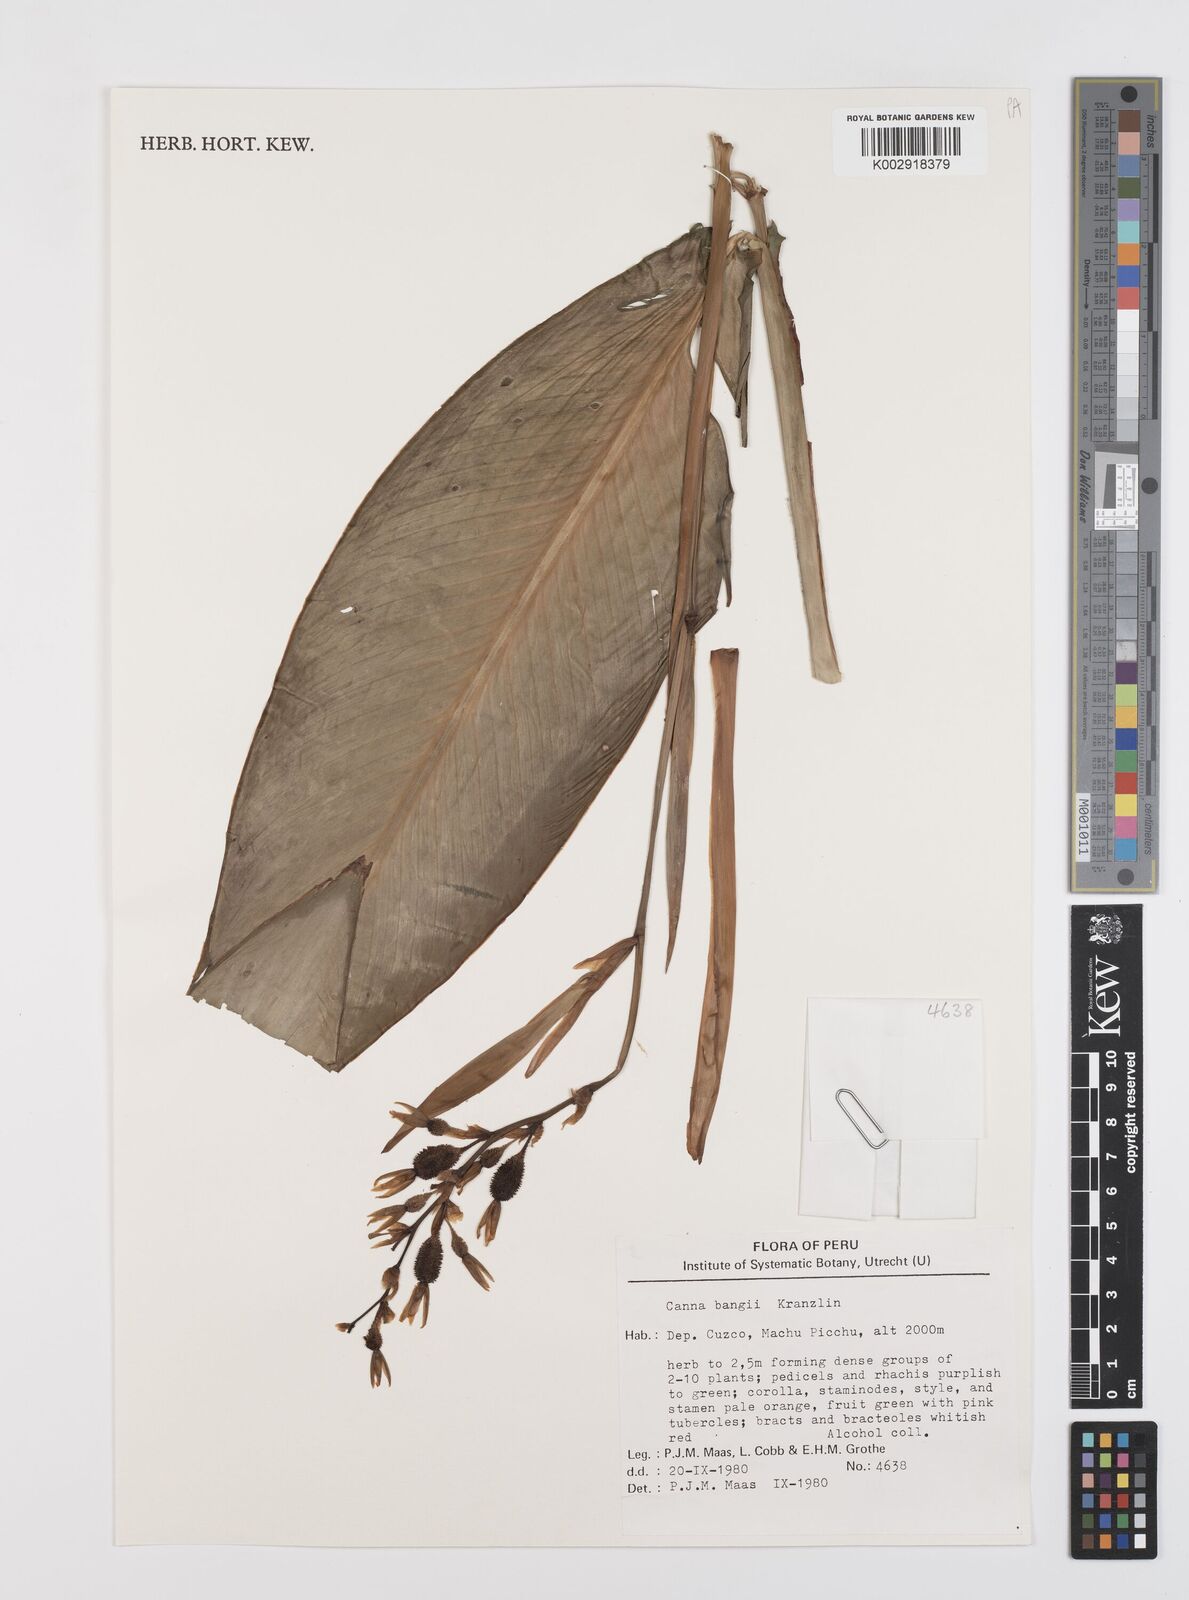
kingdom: Plantae
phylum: Tracheophyta
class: Liliopsida
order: Zingiberales
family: Cannaceae
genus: Canna
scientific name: Canna bangii
